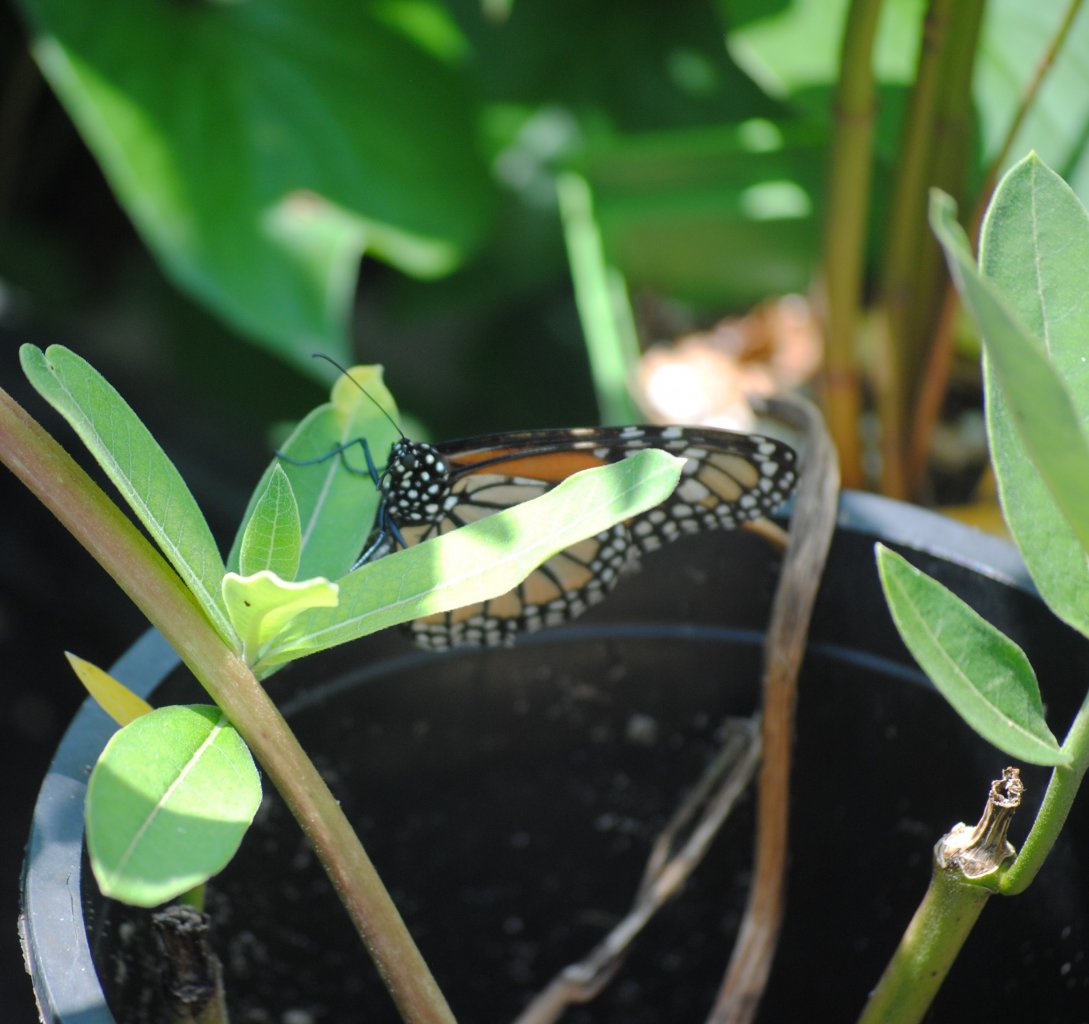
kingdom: Animalia
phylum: Arthropoda
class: Insecta
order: Lepidoptera
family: Nymphalidae
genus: Danaus
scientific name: Danaus plexippus
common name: Monarch
